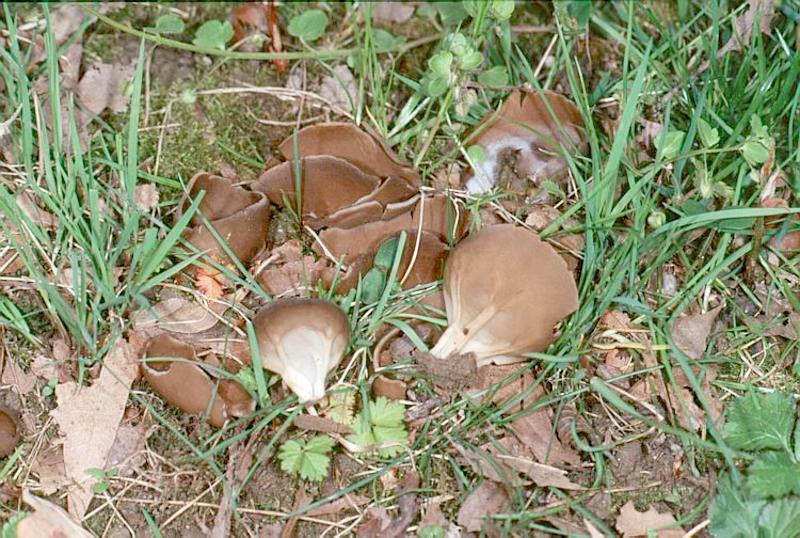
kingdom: Fungi
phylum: Ascomycota
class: Pezizomycetes
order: Pezizales
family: Helvellaceae
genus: Helvella
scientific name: Helvella acetabulum
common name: Vinegar cup
